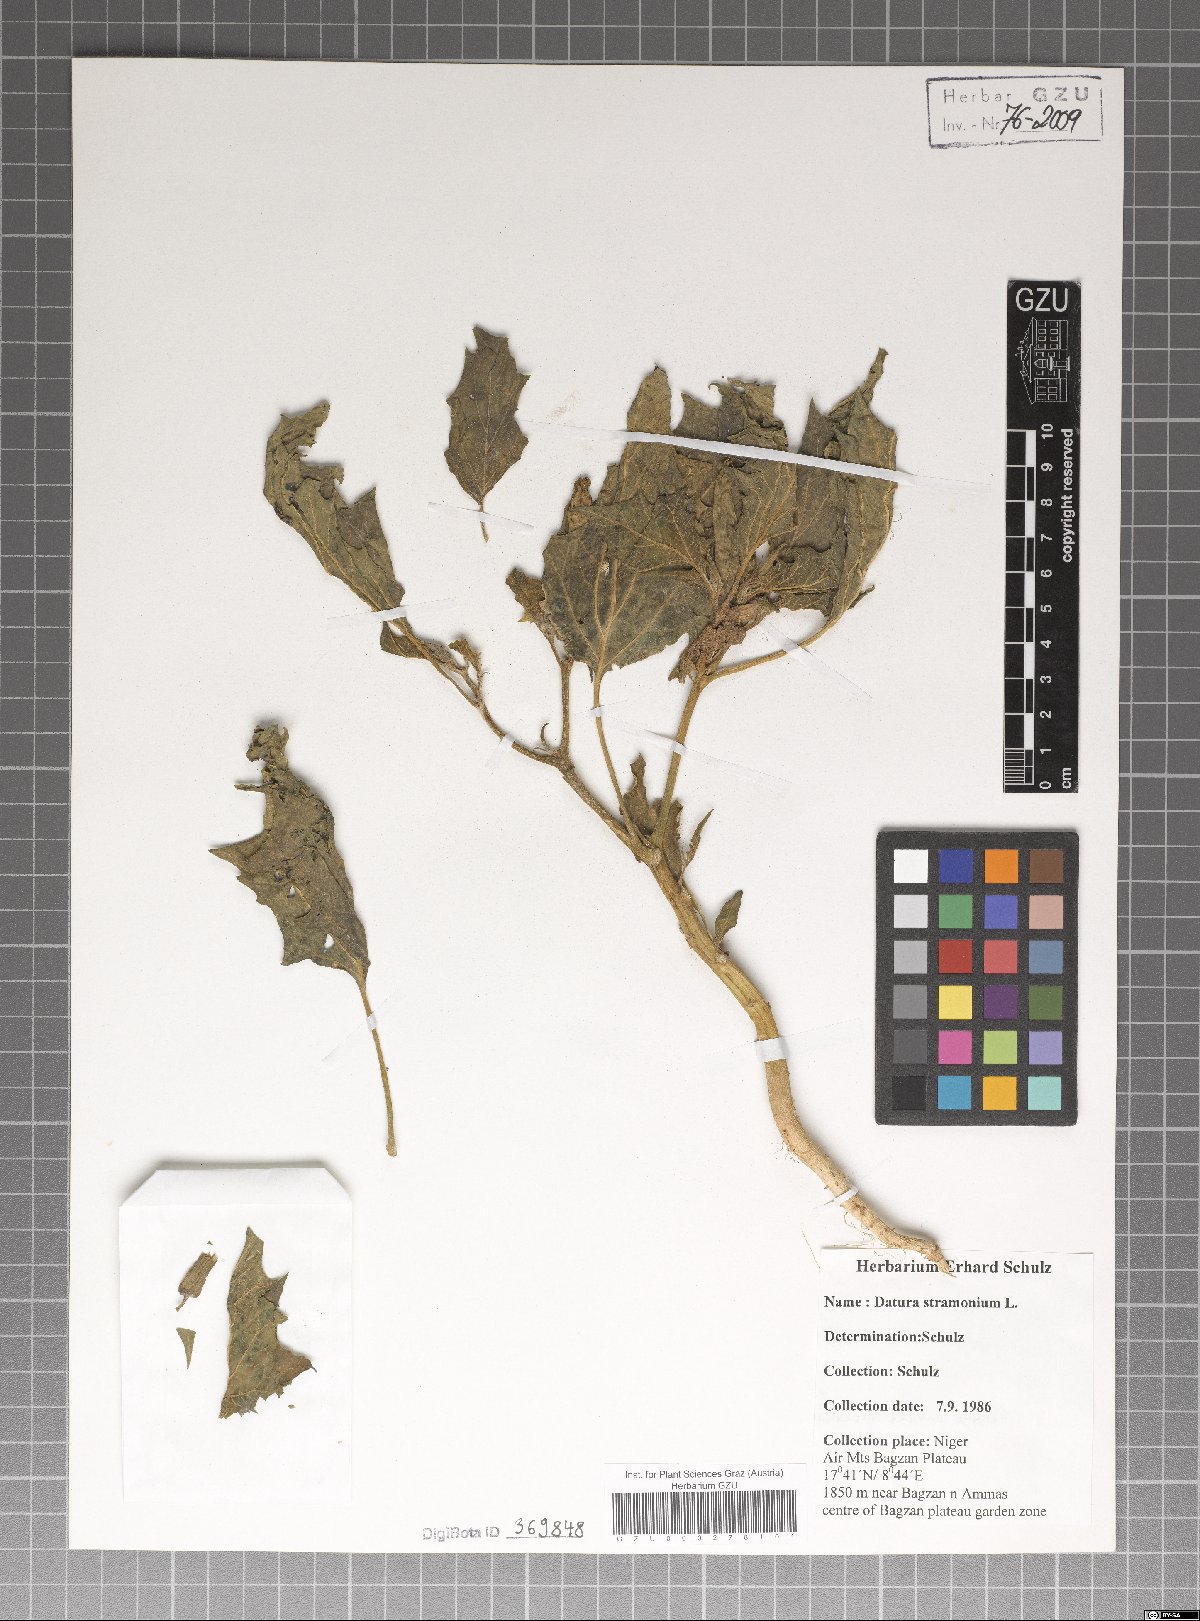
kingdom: Plantae
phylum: Tracheophyta
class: Magnoliopsida
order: Solanales
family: Solanaceae
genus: Datura
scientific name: Datura stramonium
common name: Thorn-apple
